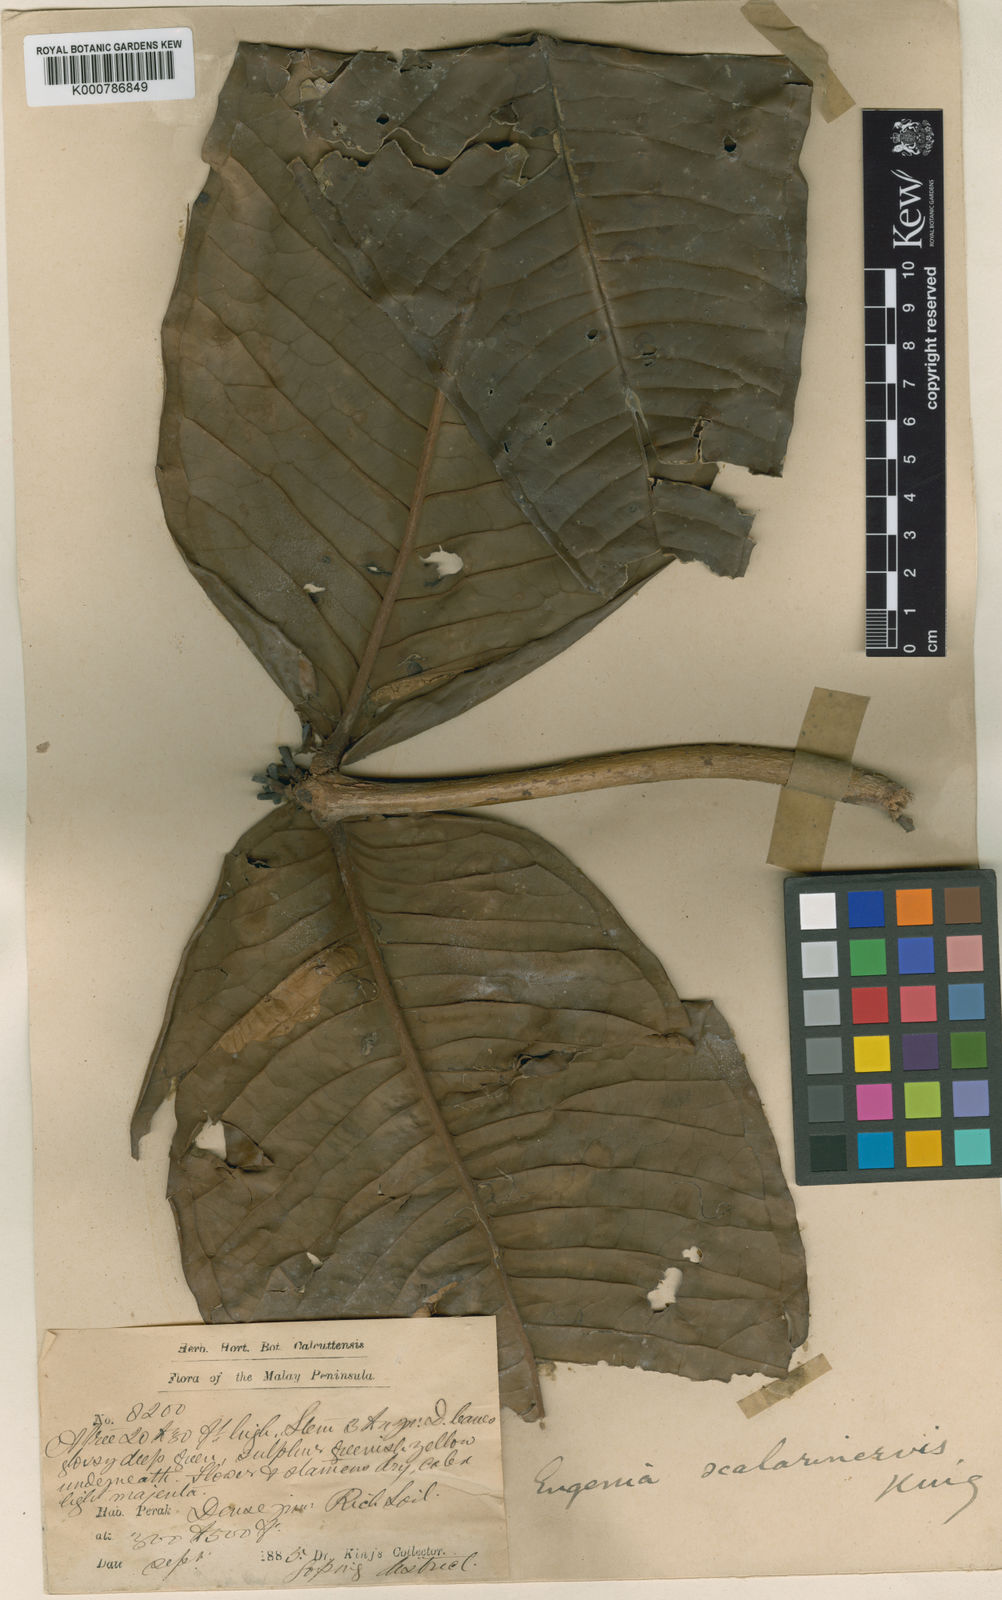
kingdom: Plantae
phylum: Tracheophyta
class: Magnoliopsida
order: Myrtales
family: Myrtaceae
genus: Syzygium
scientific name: Syzygium scalarinerve
